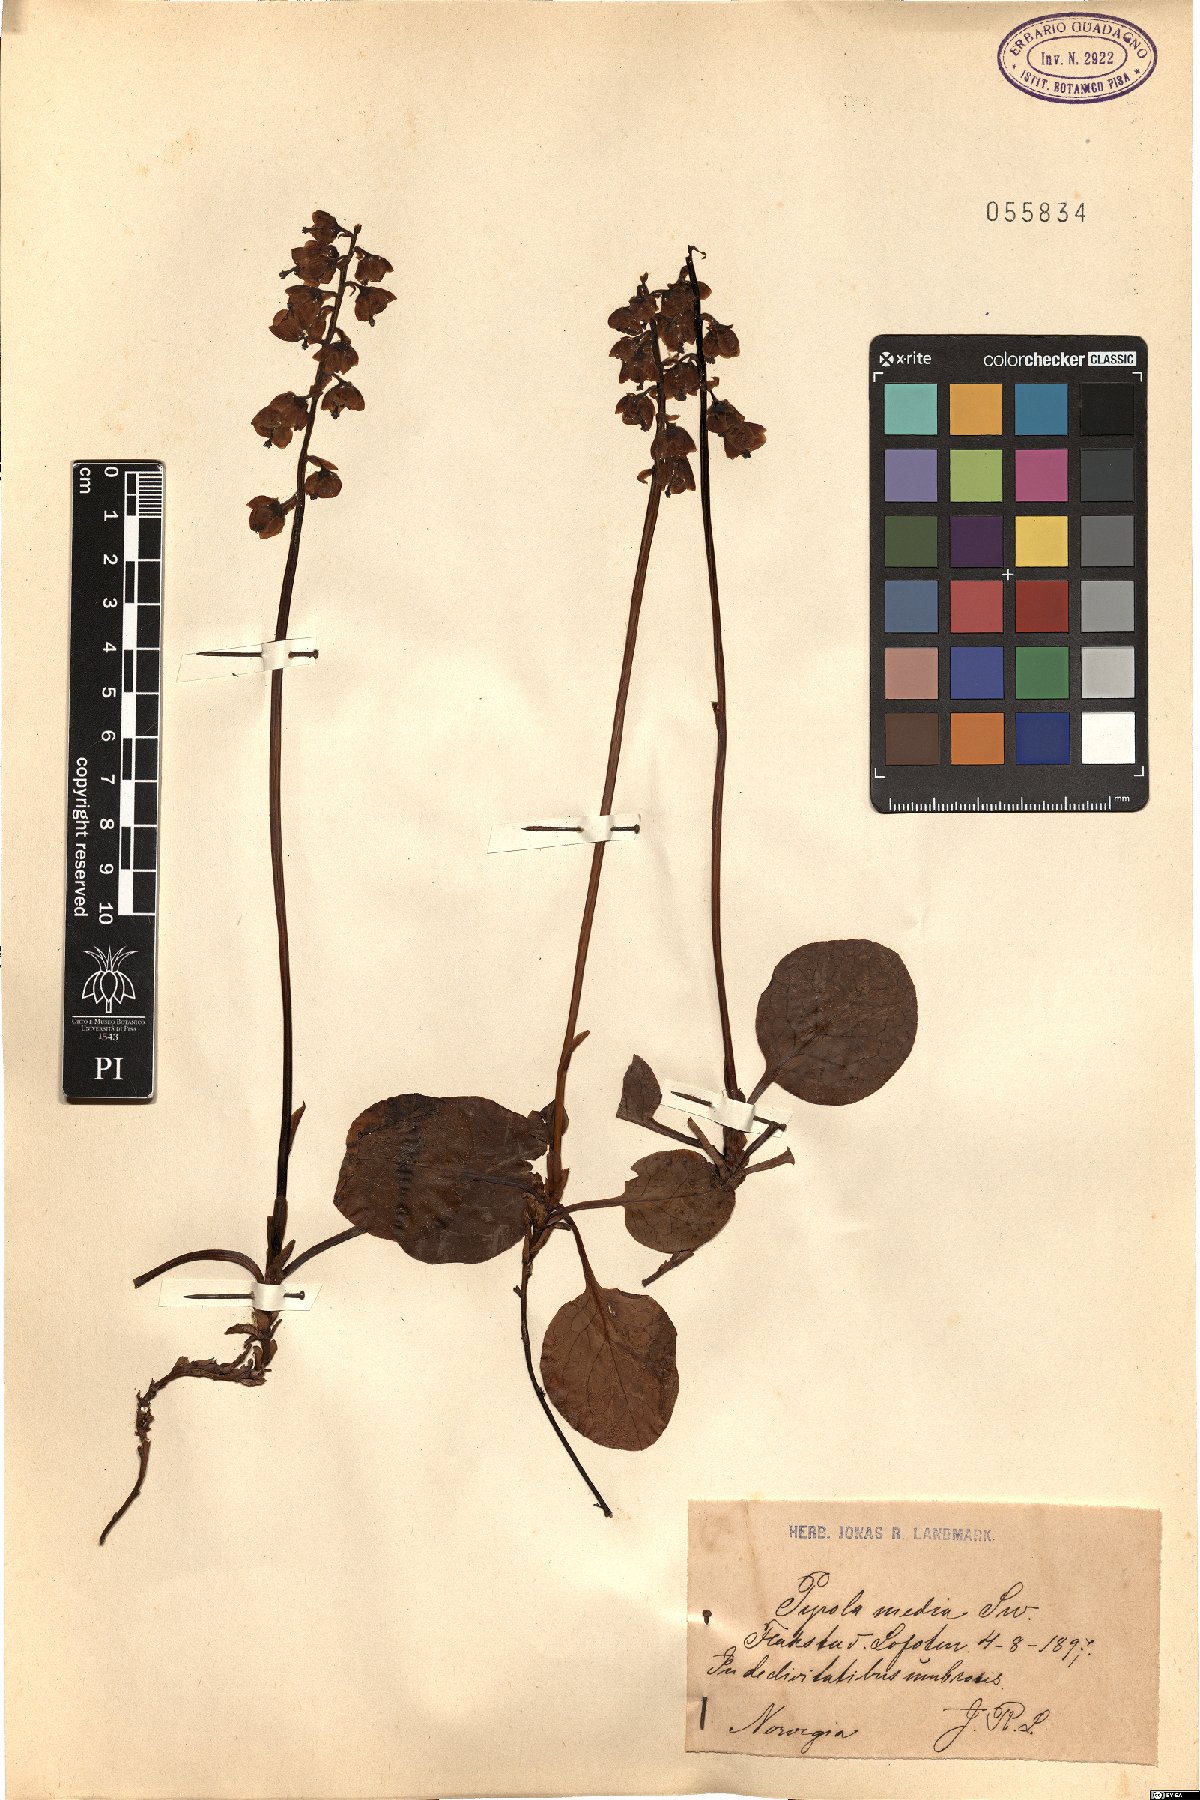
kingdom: Plantae
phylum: Tracheophyta
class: Magnoliopsida
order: Ericales
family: Ericaceae
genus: Pyrola
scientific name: Pyrola media
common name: Intermediate wintergreen
